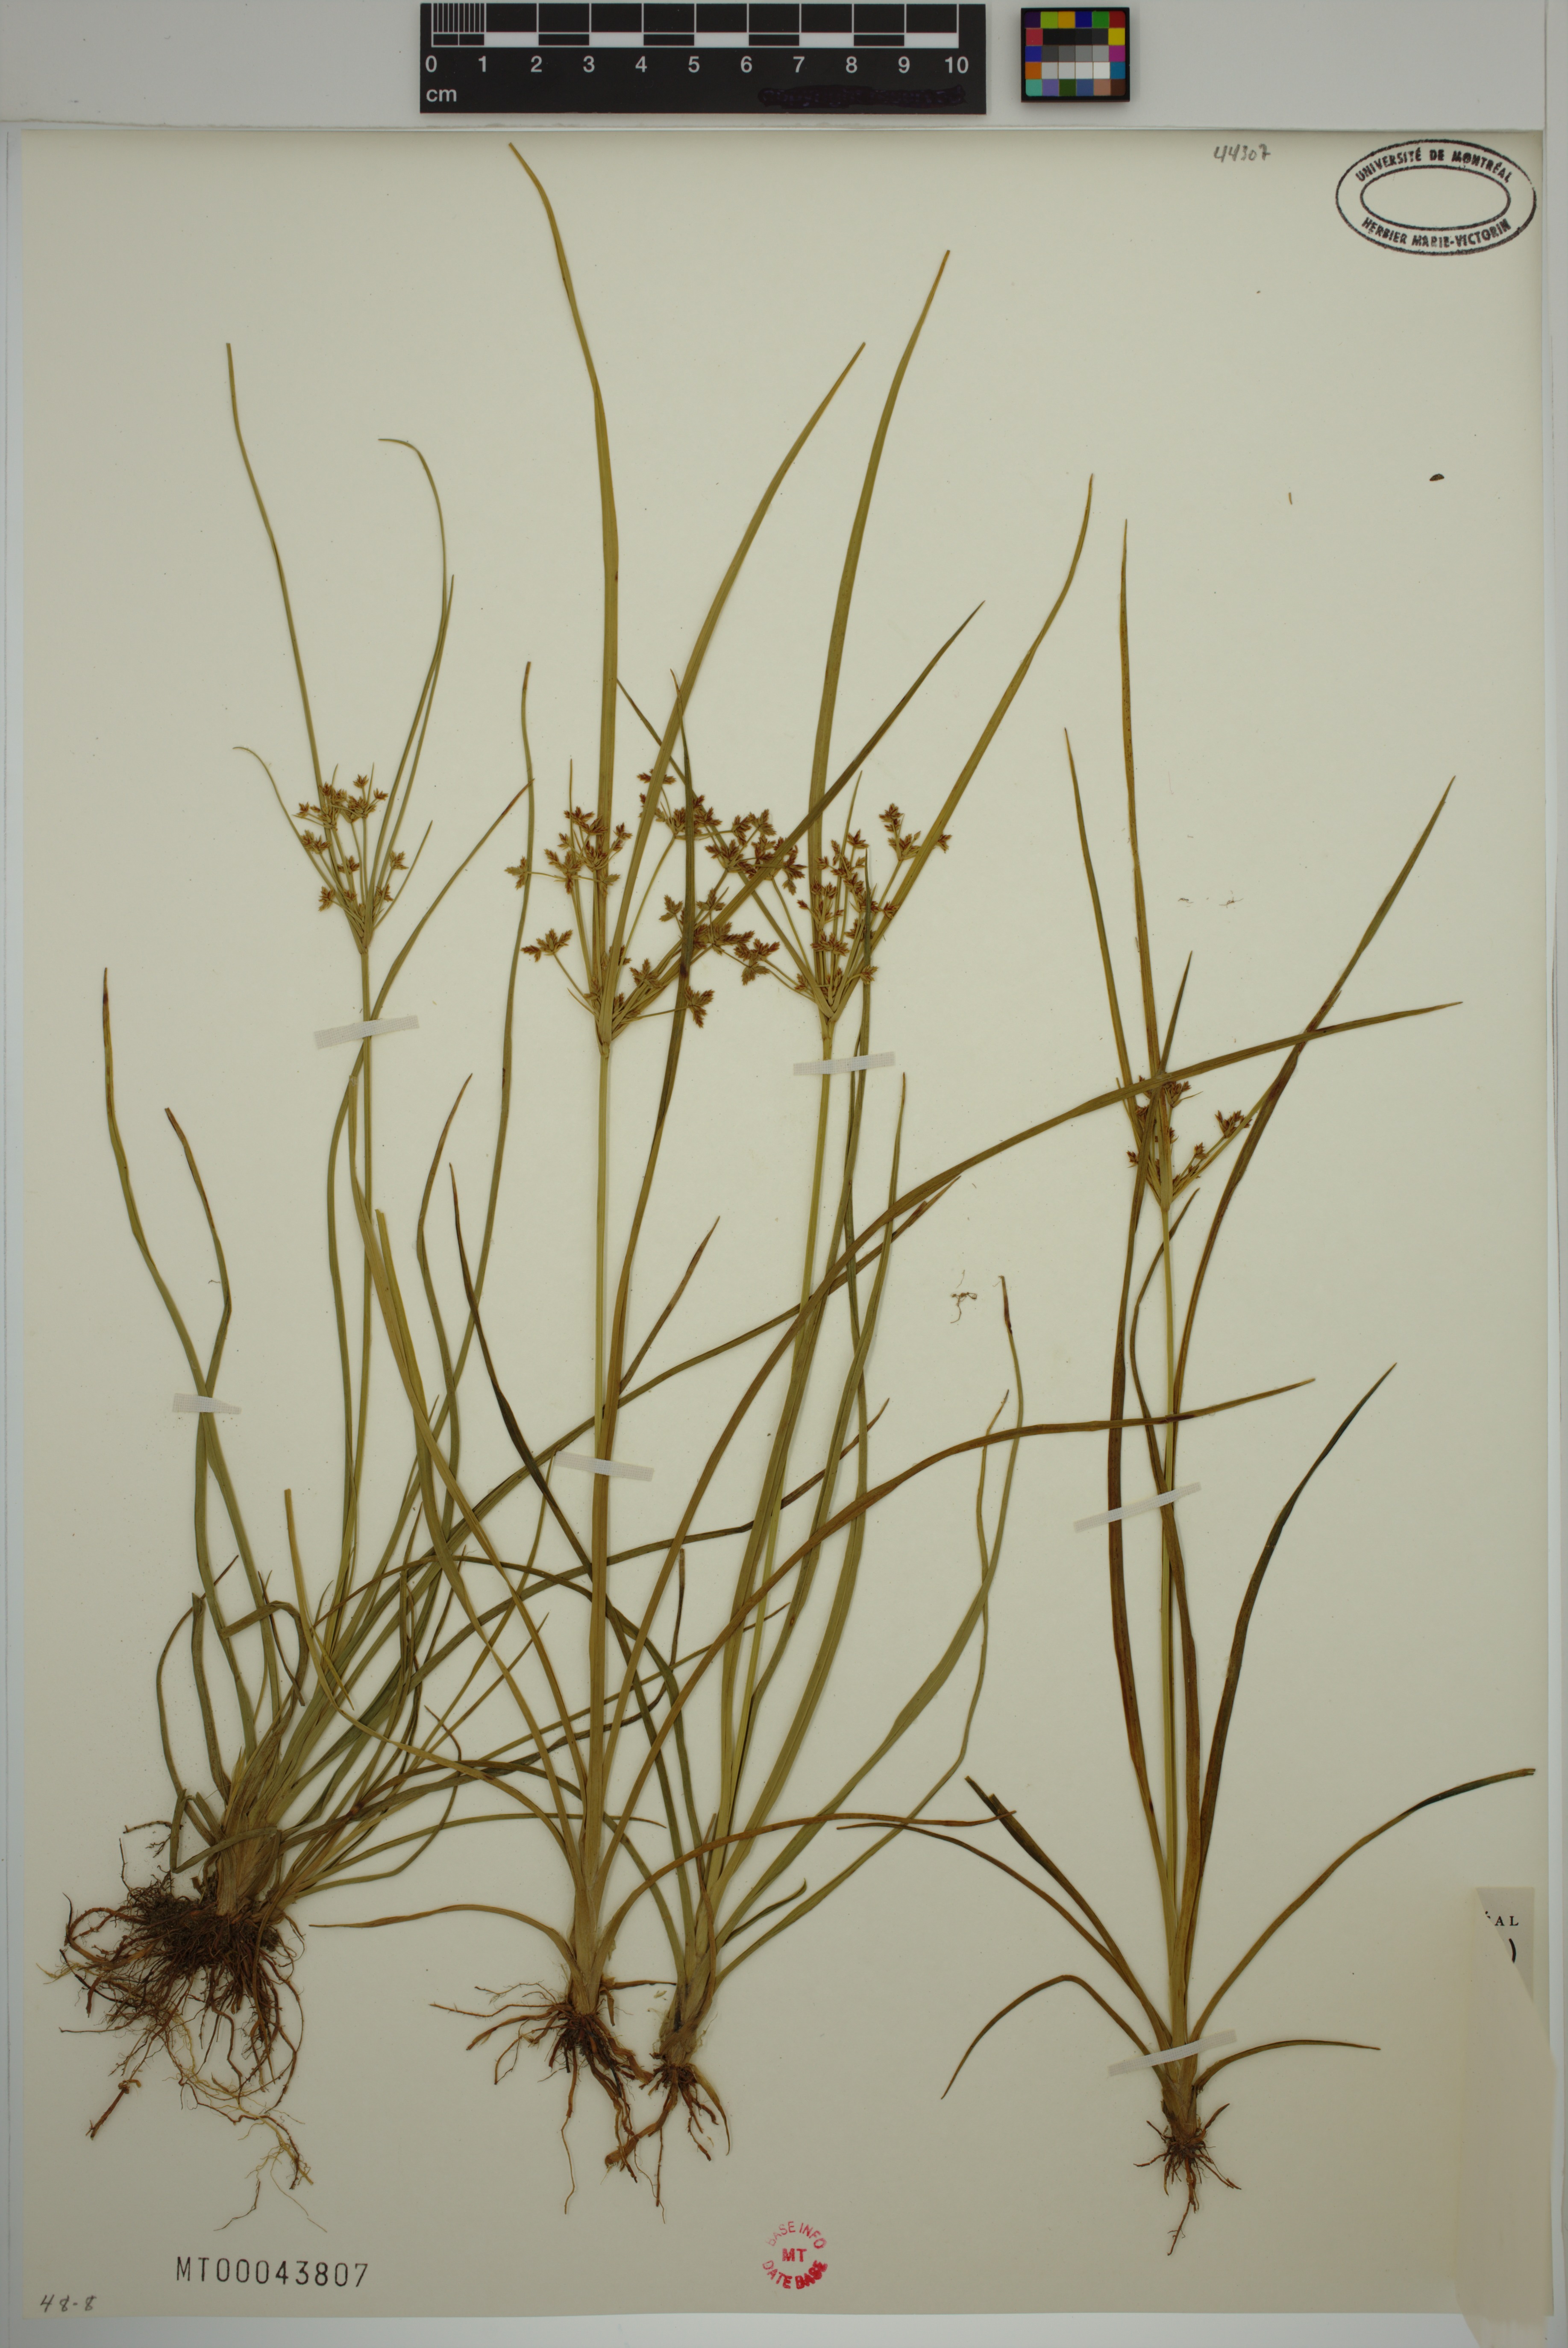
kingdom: Plantae
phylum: Tracheophyta
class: Liliopsida
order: Poales
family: Cyperaceae
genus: Schoenoplectiella
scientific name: Schoenoplectiella smithii
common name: Smith's bulrush
